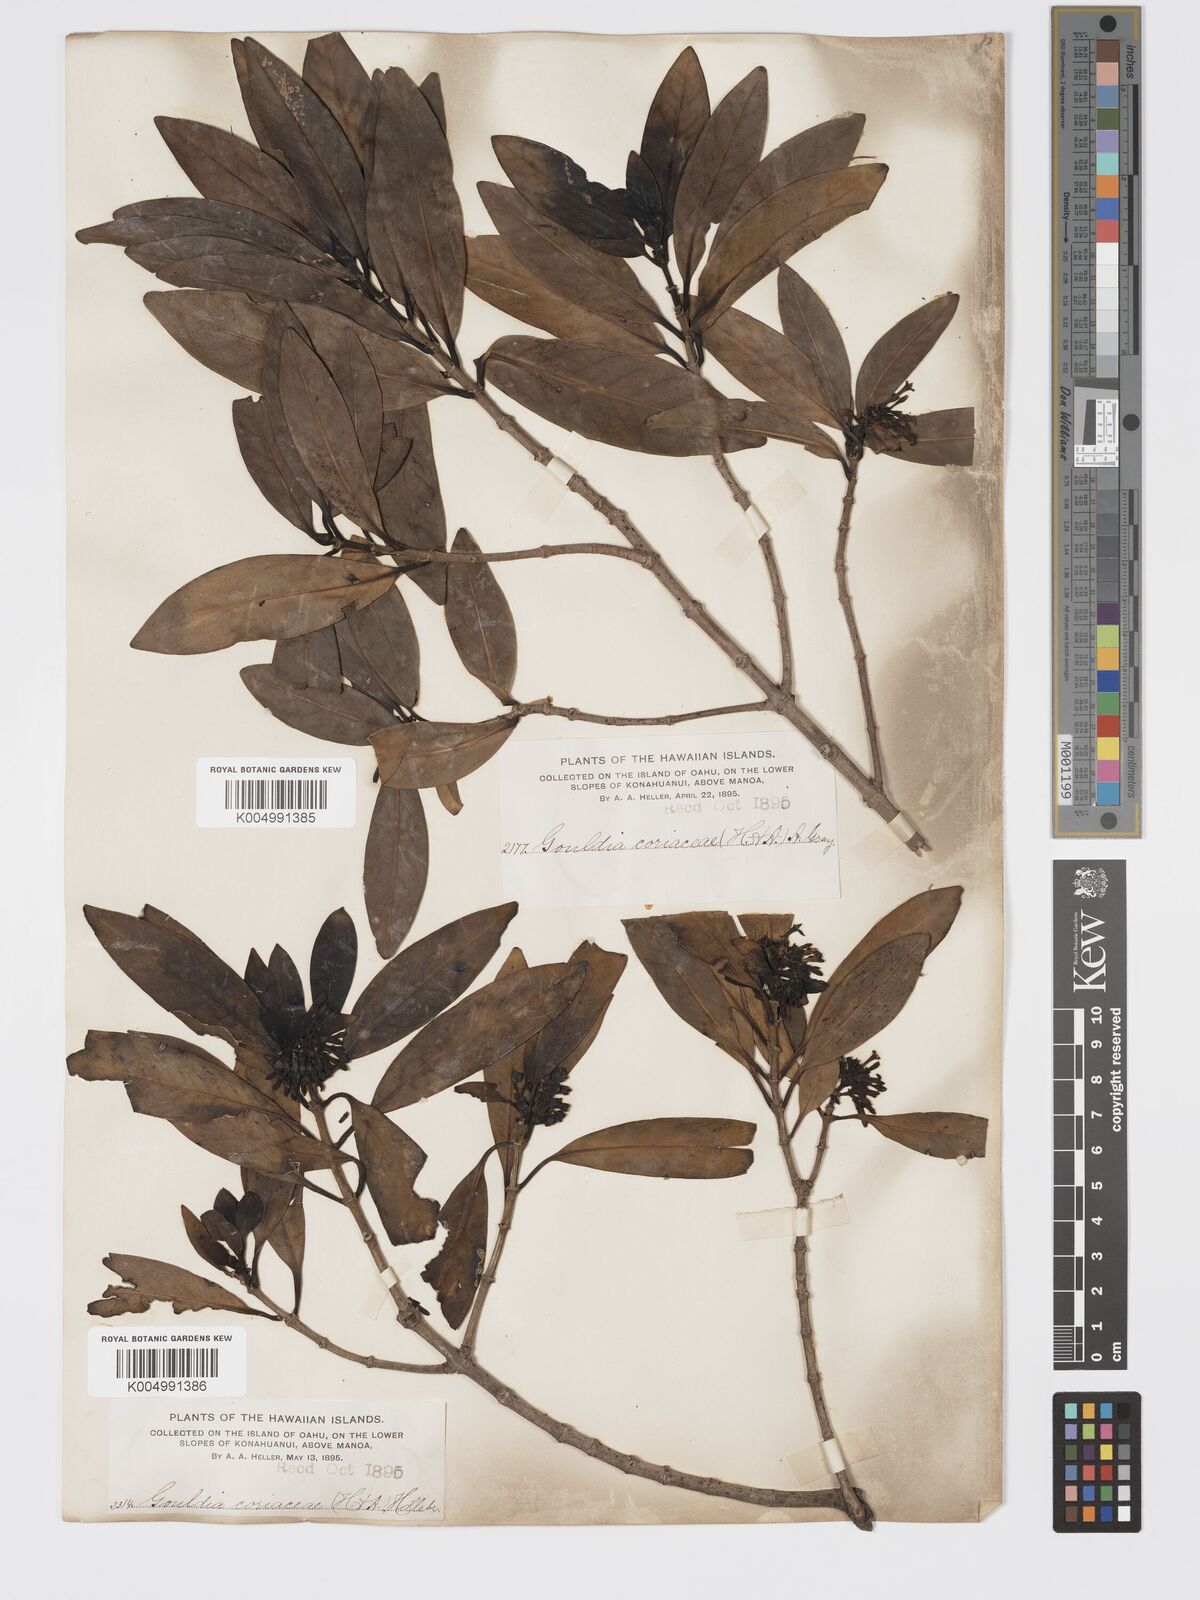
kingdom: Plantae
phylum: Tracheophyta
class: Magnoliopsida
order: Gentianales
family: Rubiaceae
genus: Kadua
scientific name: Kadua affinis
